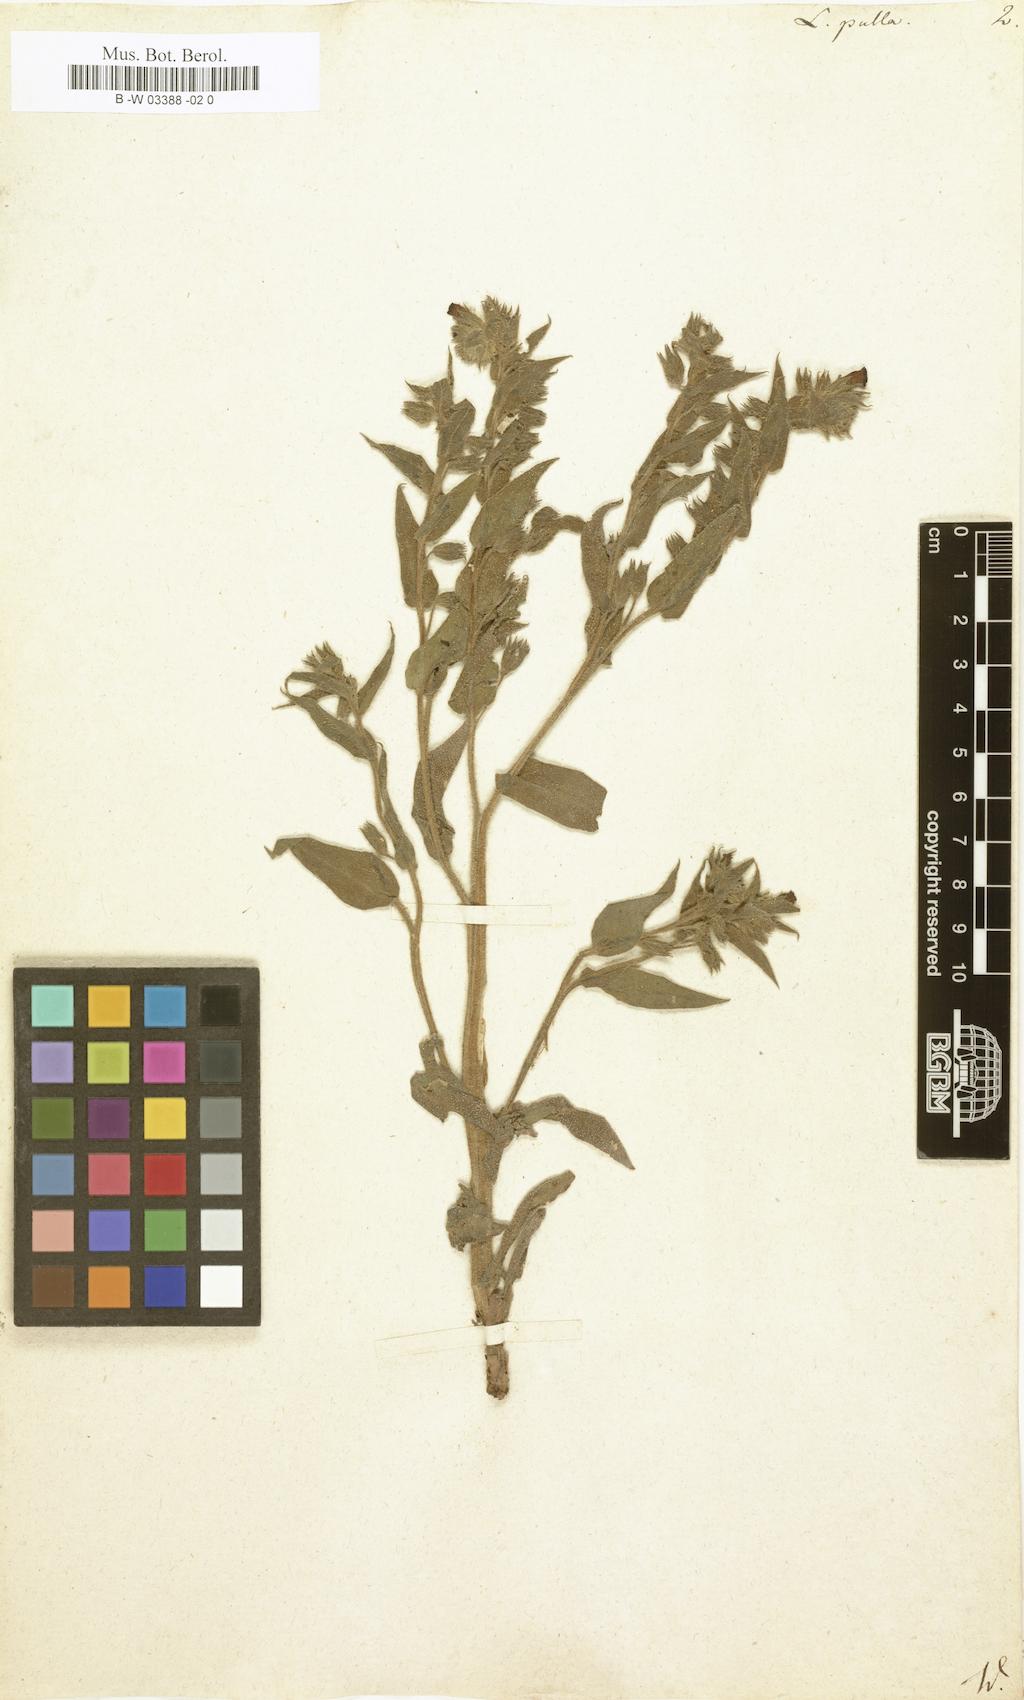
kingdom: Plantae
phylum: Tracheophyta
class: Magnoliopsida
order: Boraginales
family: Boraginaceae
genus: Nonea
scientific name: Nonea
